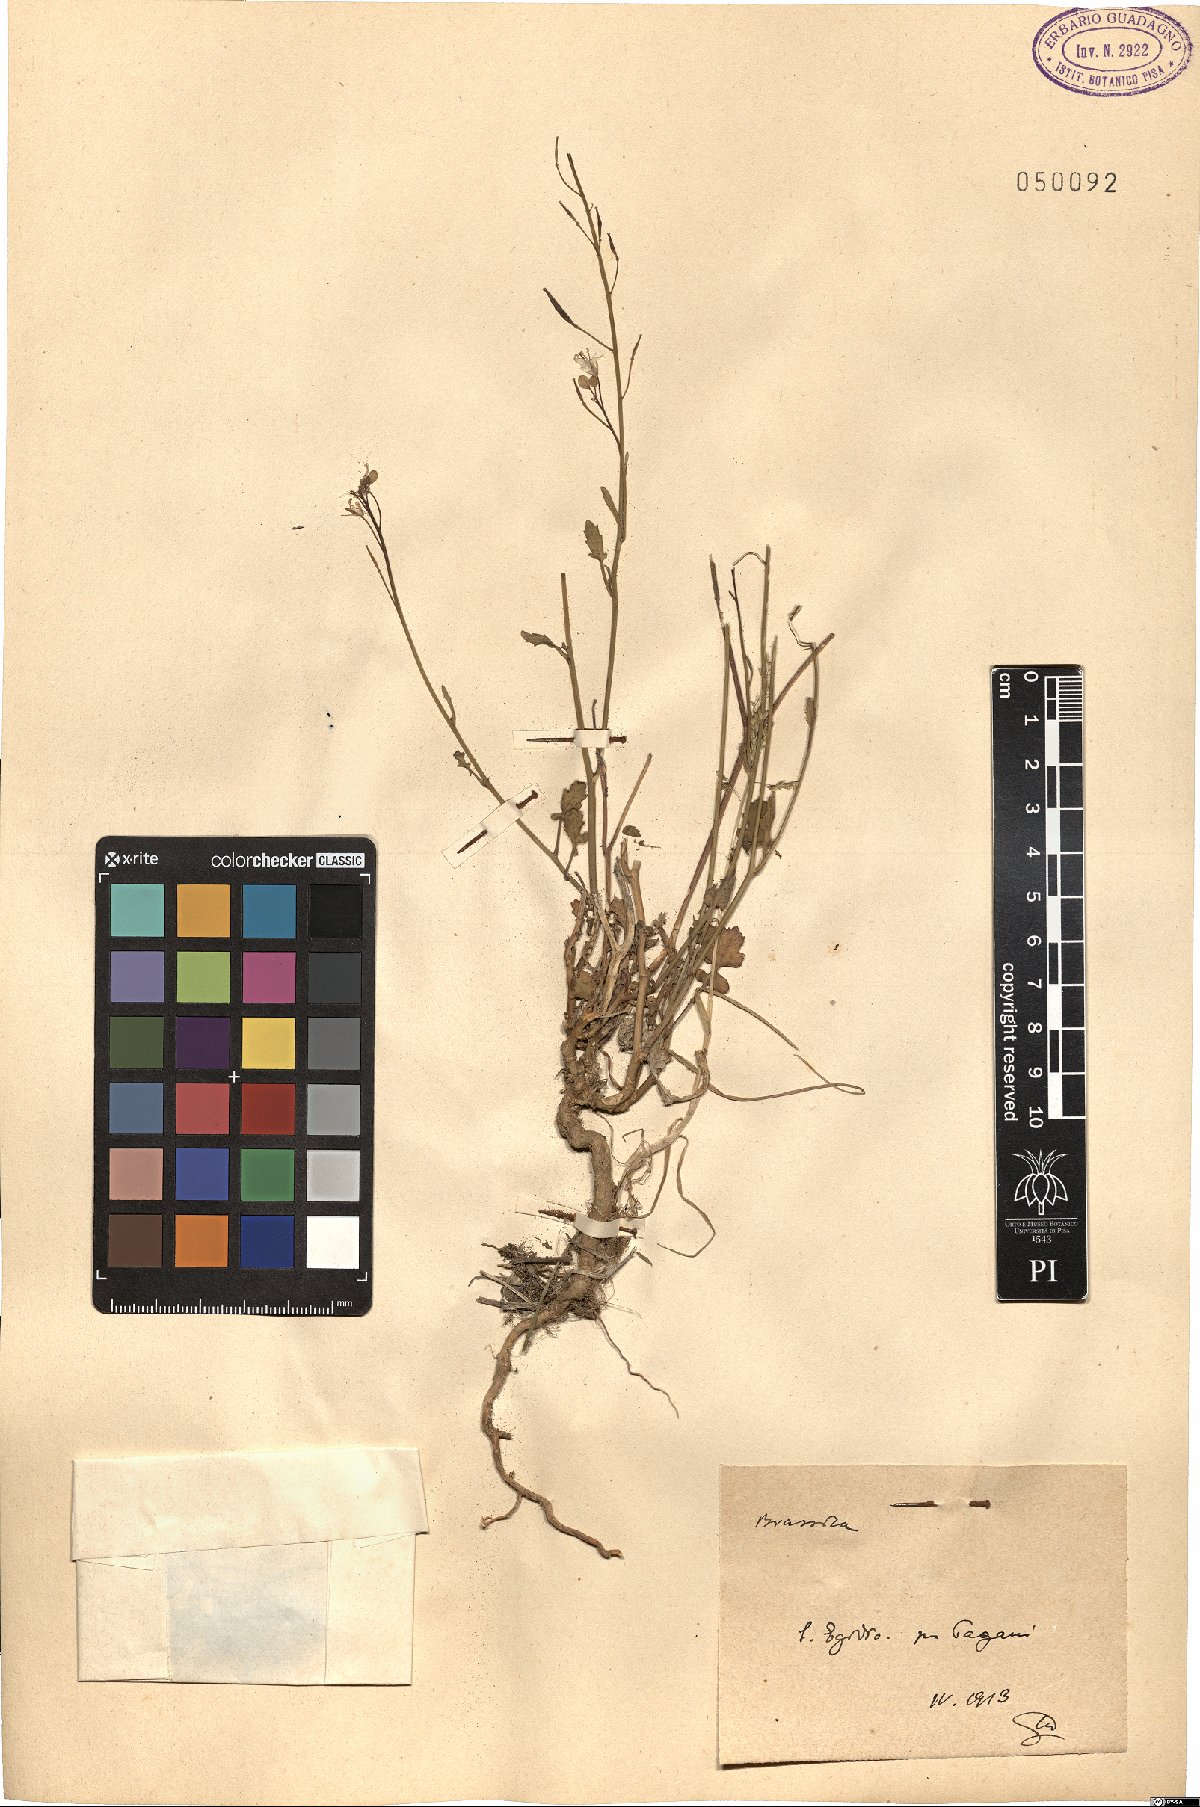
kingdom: Plantae
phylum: Tracheophyta
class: Magnoliopsida
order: Brassicales
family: Brassicaceae
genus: Brassica
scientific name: Brassica
